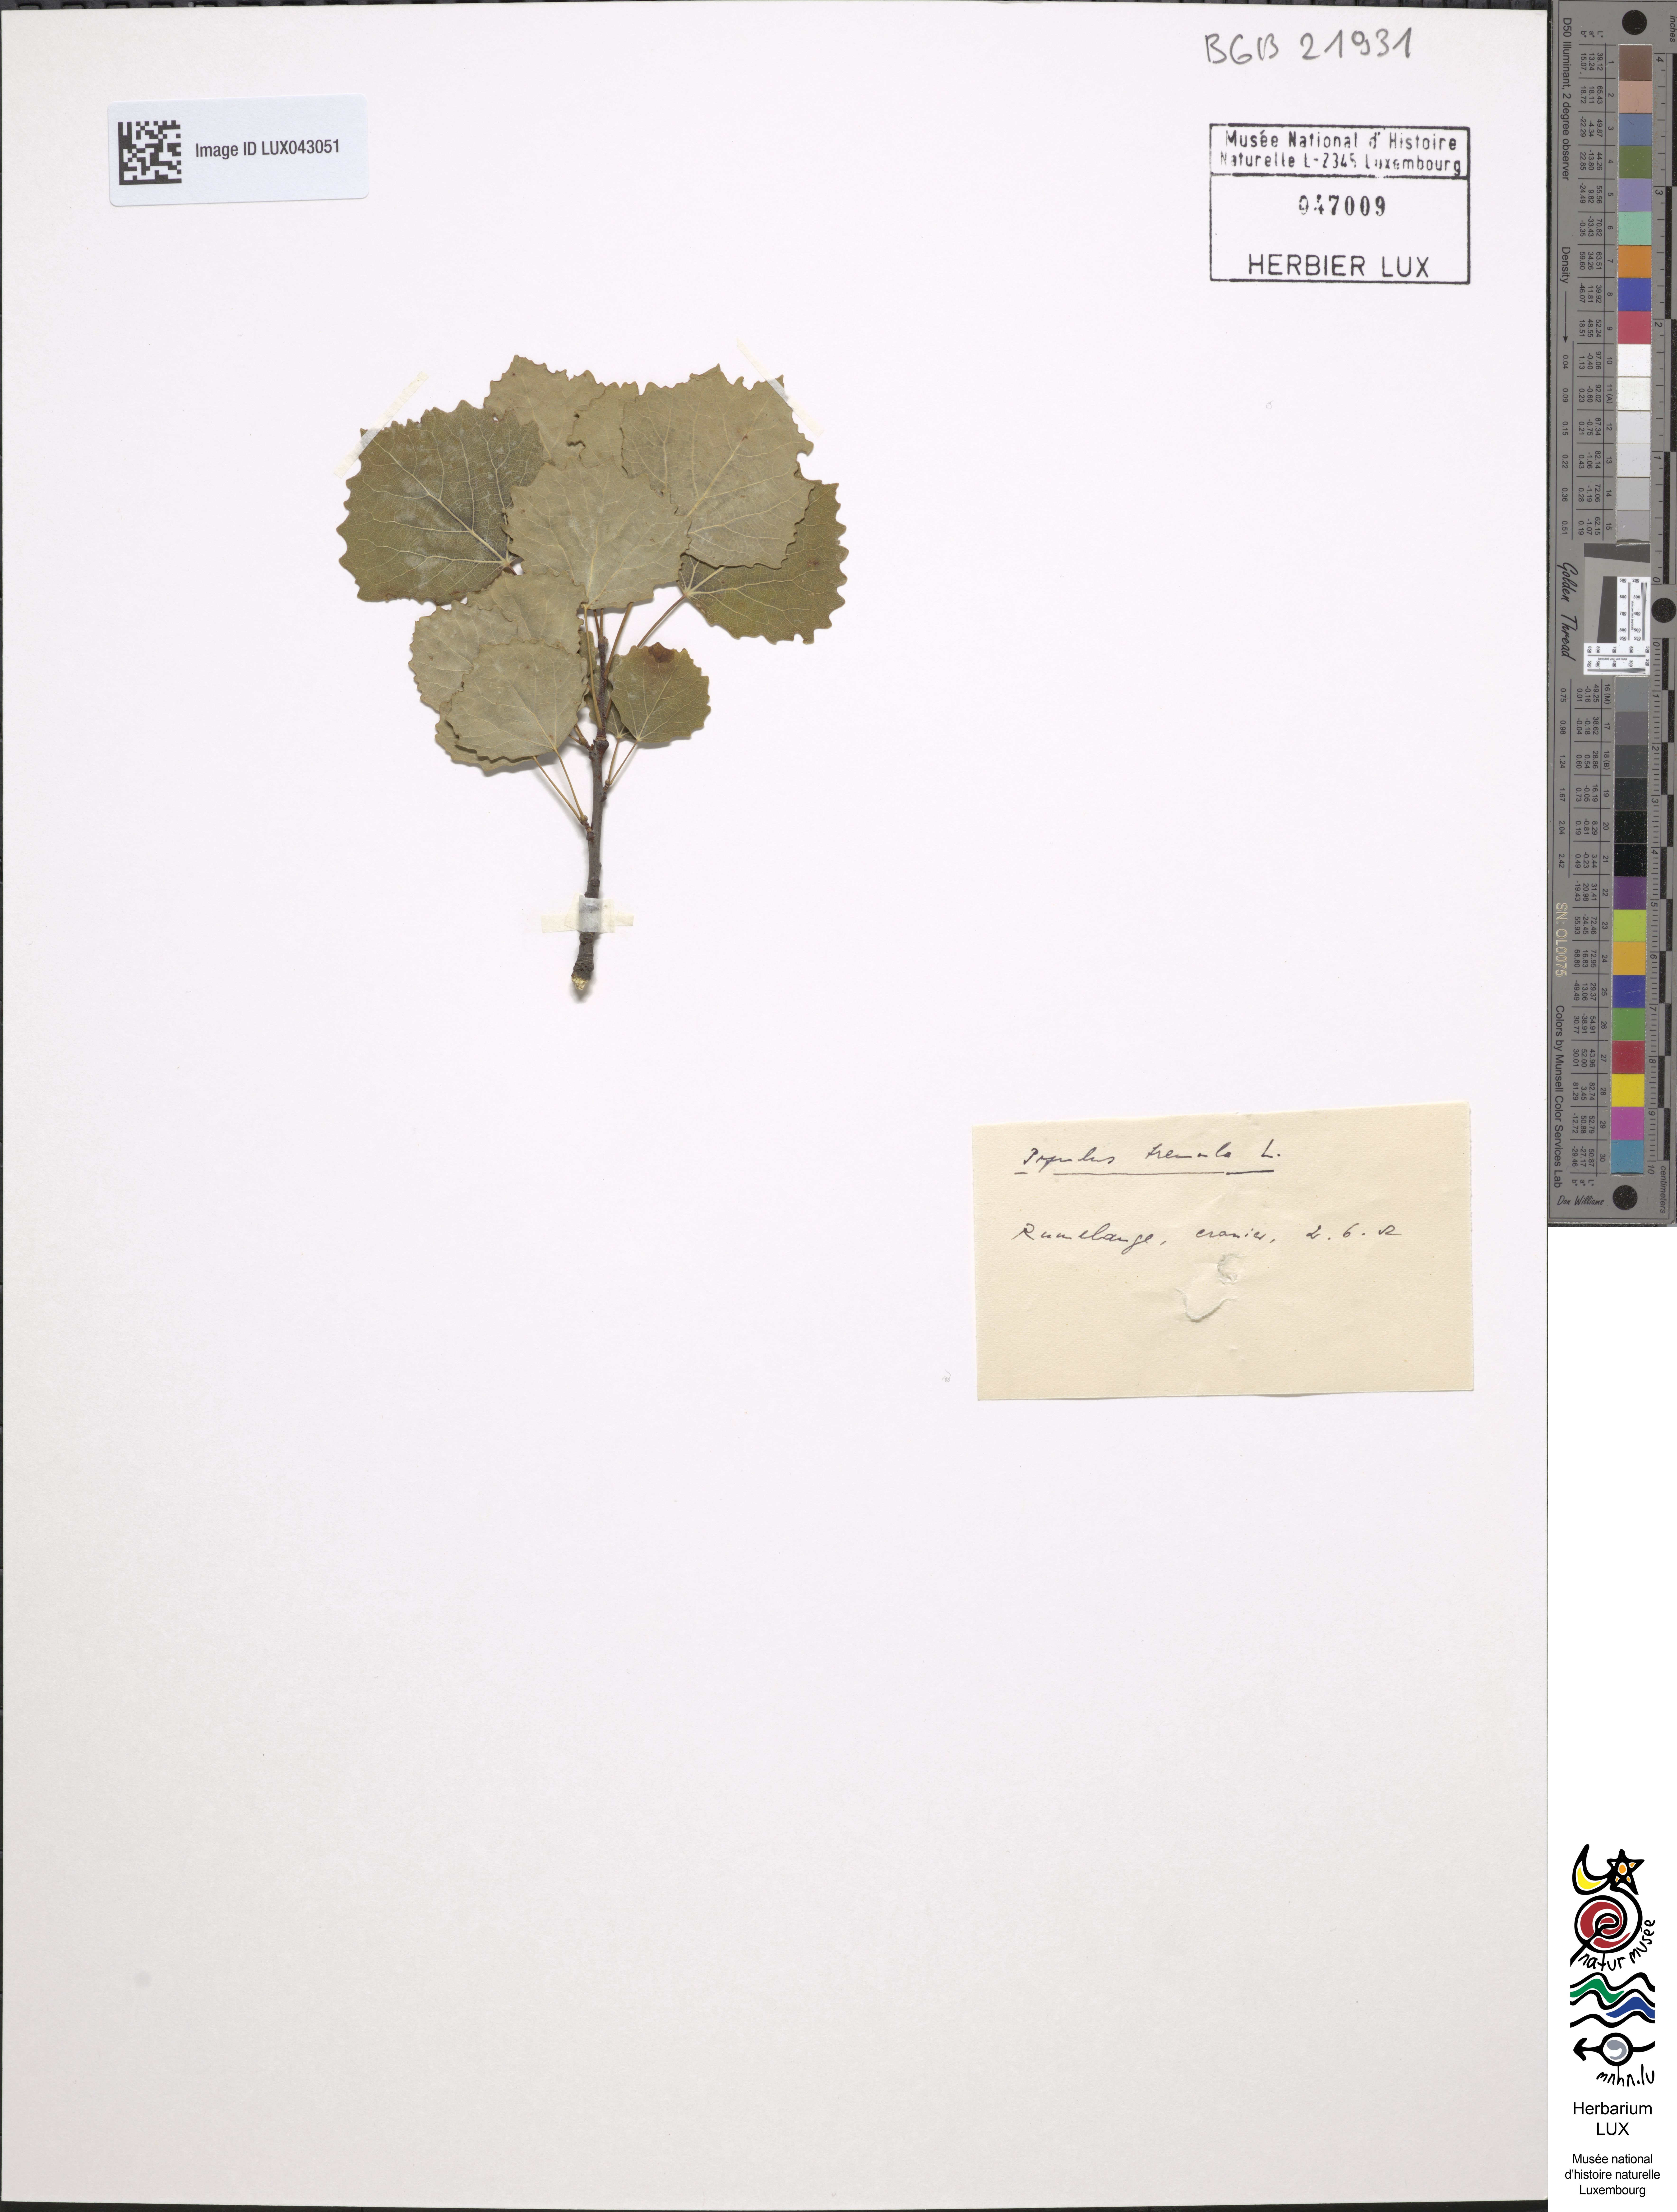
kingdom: Plantae
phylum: Tracheophyta
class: Magnoliopsida
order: Malpighiales
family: Salicaceae
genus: Populus
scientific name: Populus tremula
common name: European aspen
